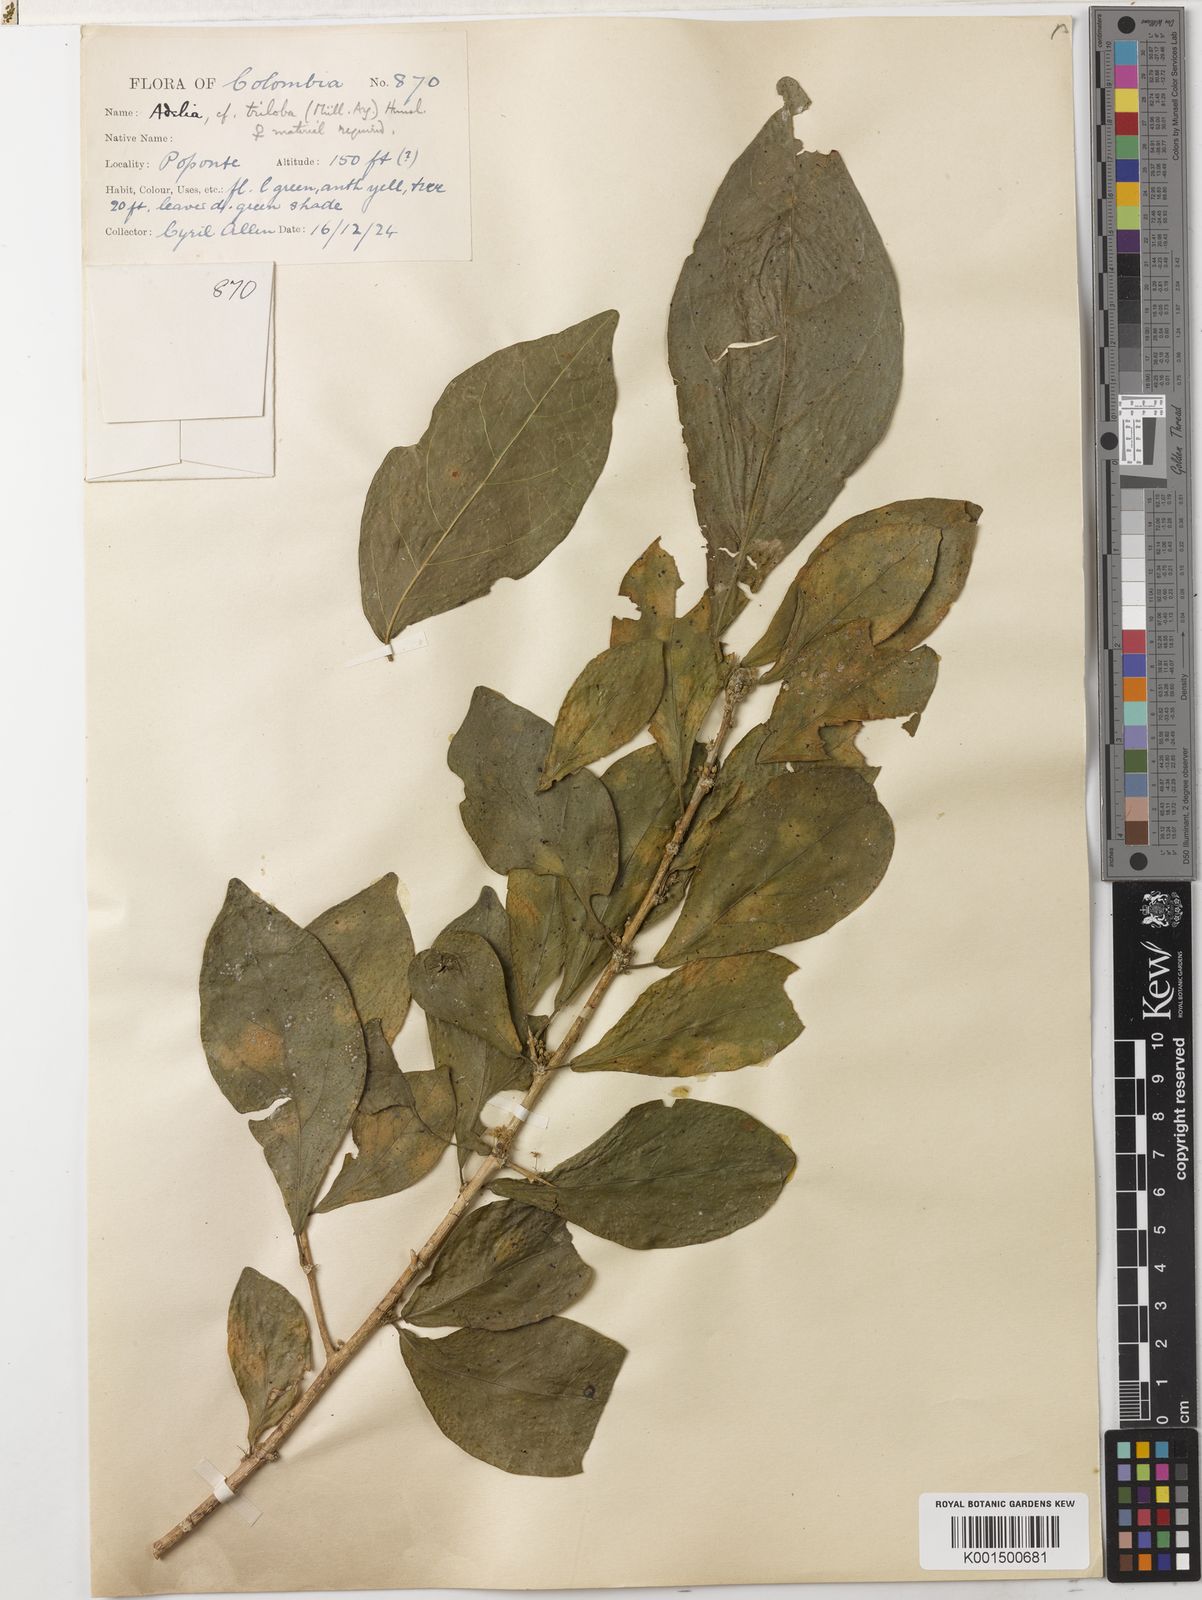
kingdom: Plantae
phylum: Tracheophyta
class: Magnoliopsida
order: Malpighiales
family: Euphorbiaceae
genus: Acalypha
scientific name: Acalypha triloba
